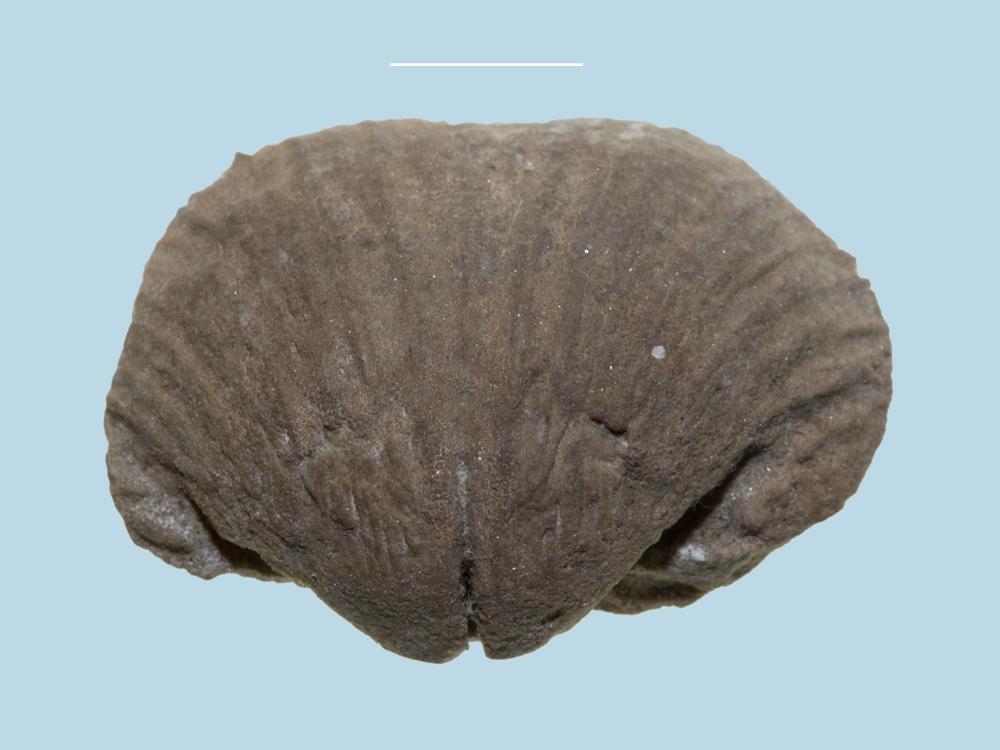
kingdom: Animalia
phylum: Brachiopoda
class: Rhynchonellata
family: Clitambonitidae
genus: Vellamo
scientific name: Vellamo
